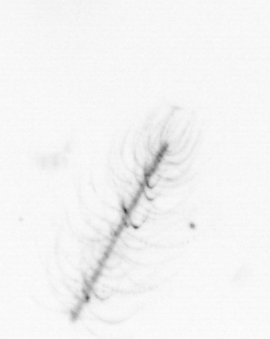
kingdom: Chromista
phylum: Ochrophyta
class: Bacillariophyceae
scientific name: Bacillariophyceae
